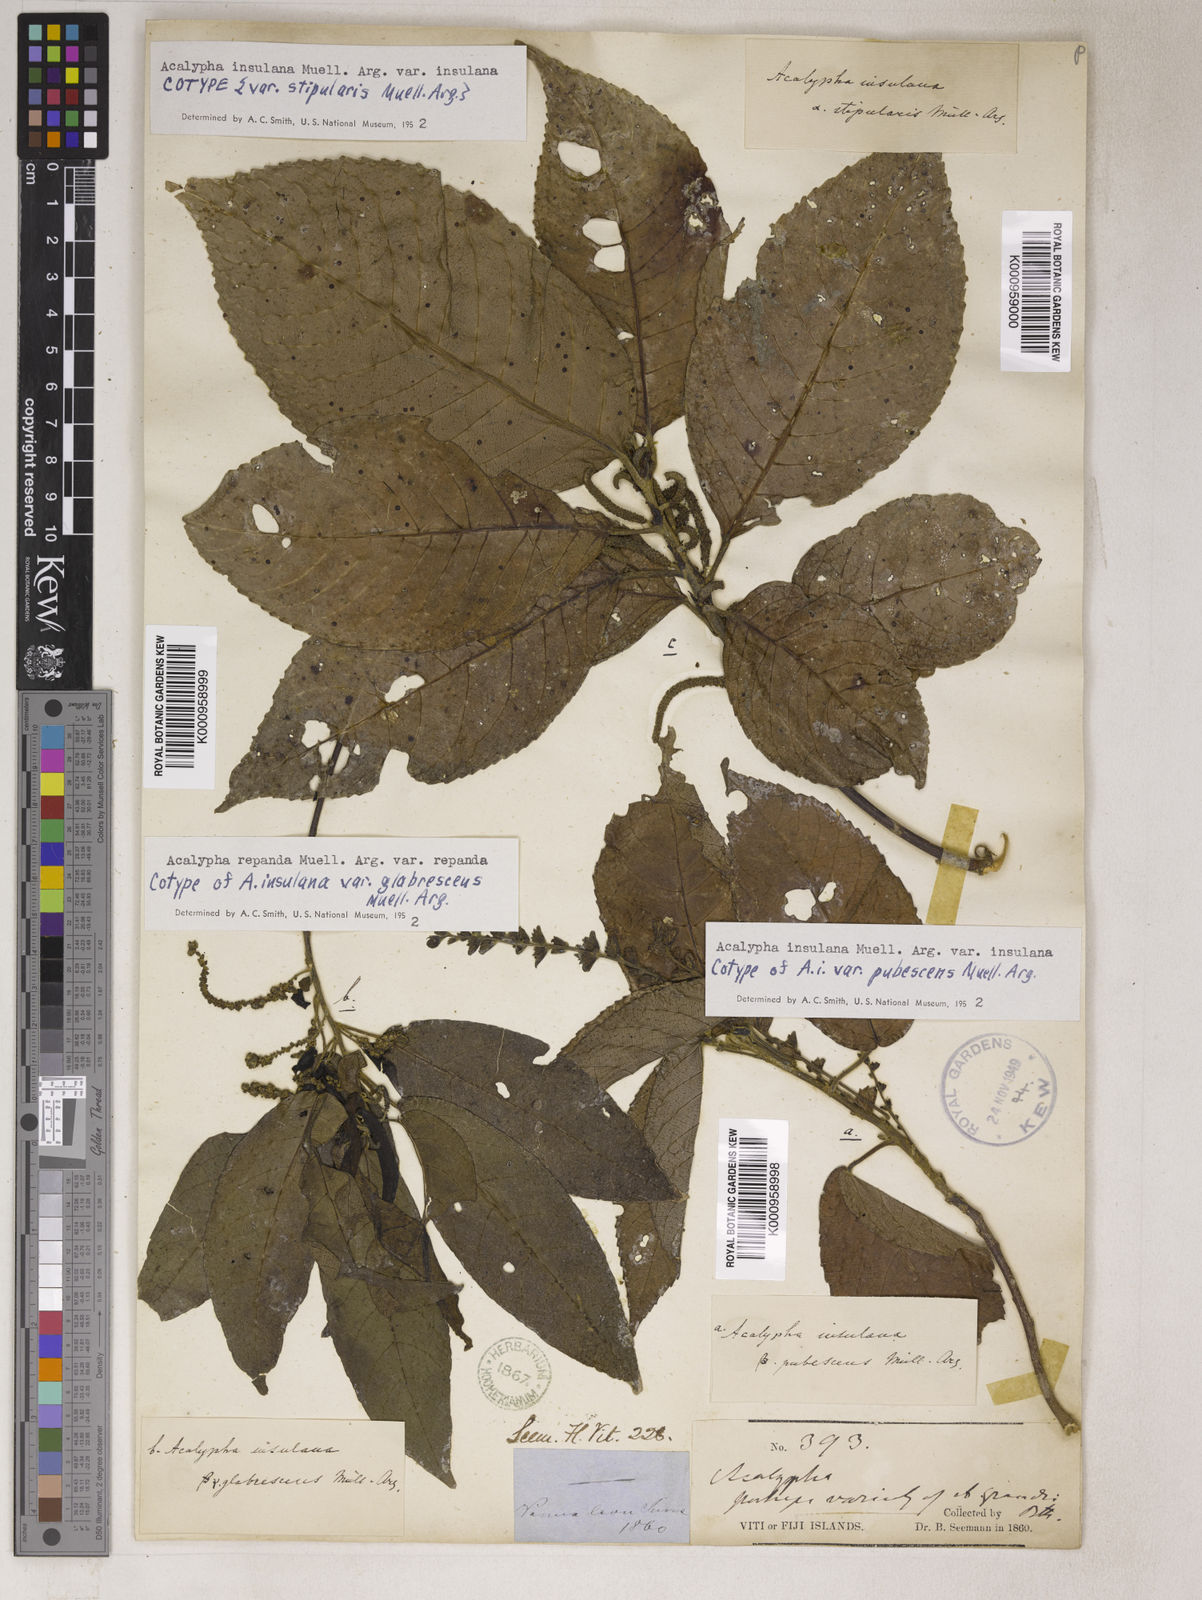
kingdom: Plantae
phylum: Tracheophyta
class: Magnoliopsida
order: Malpighiales
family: Euphorbiaceae
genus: Acalypha
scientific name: Acalypha
